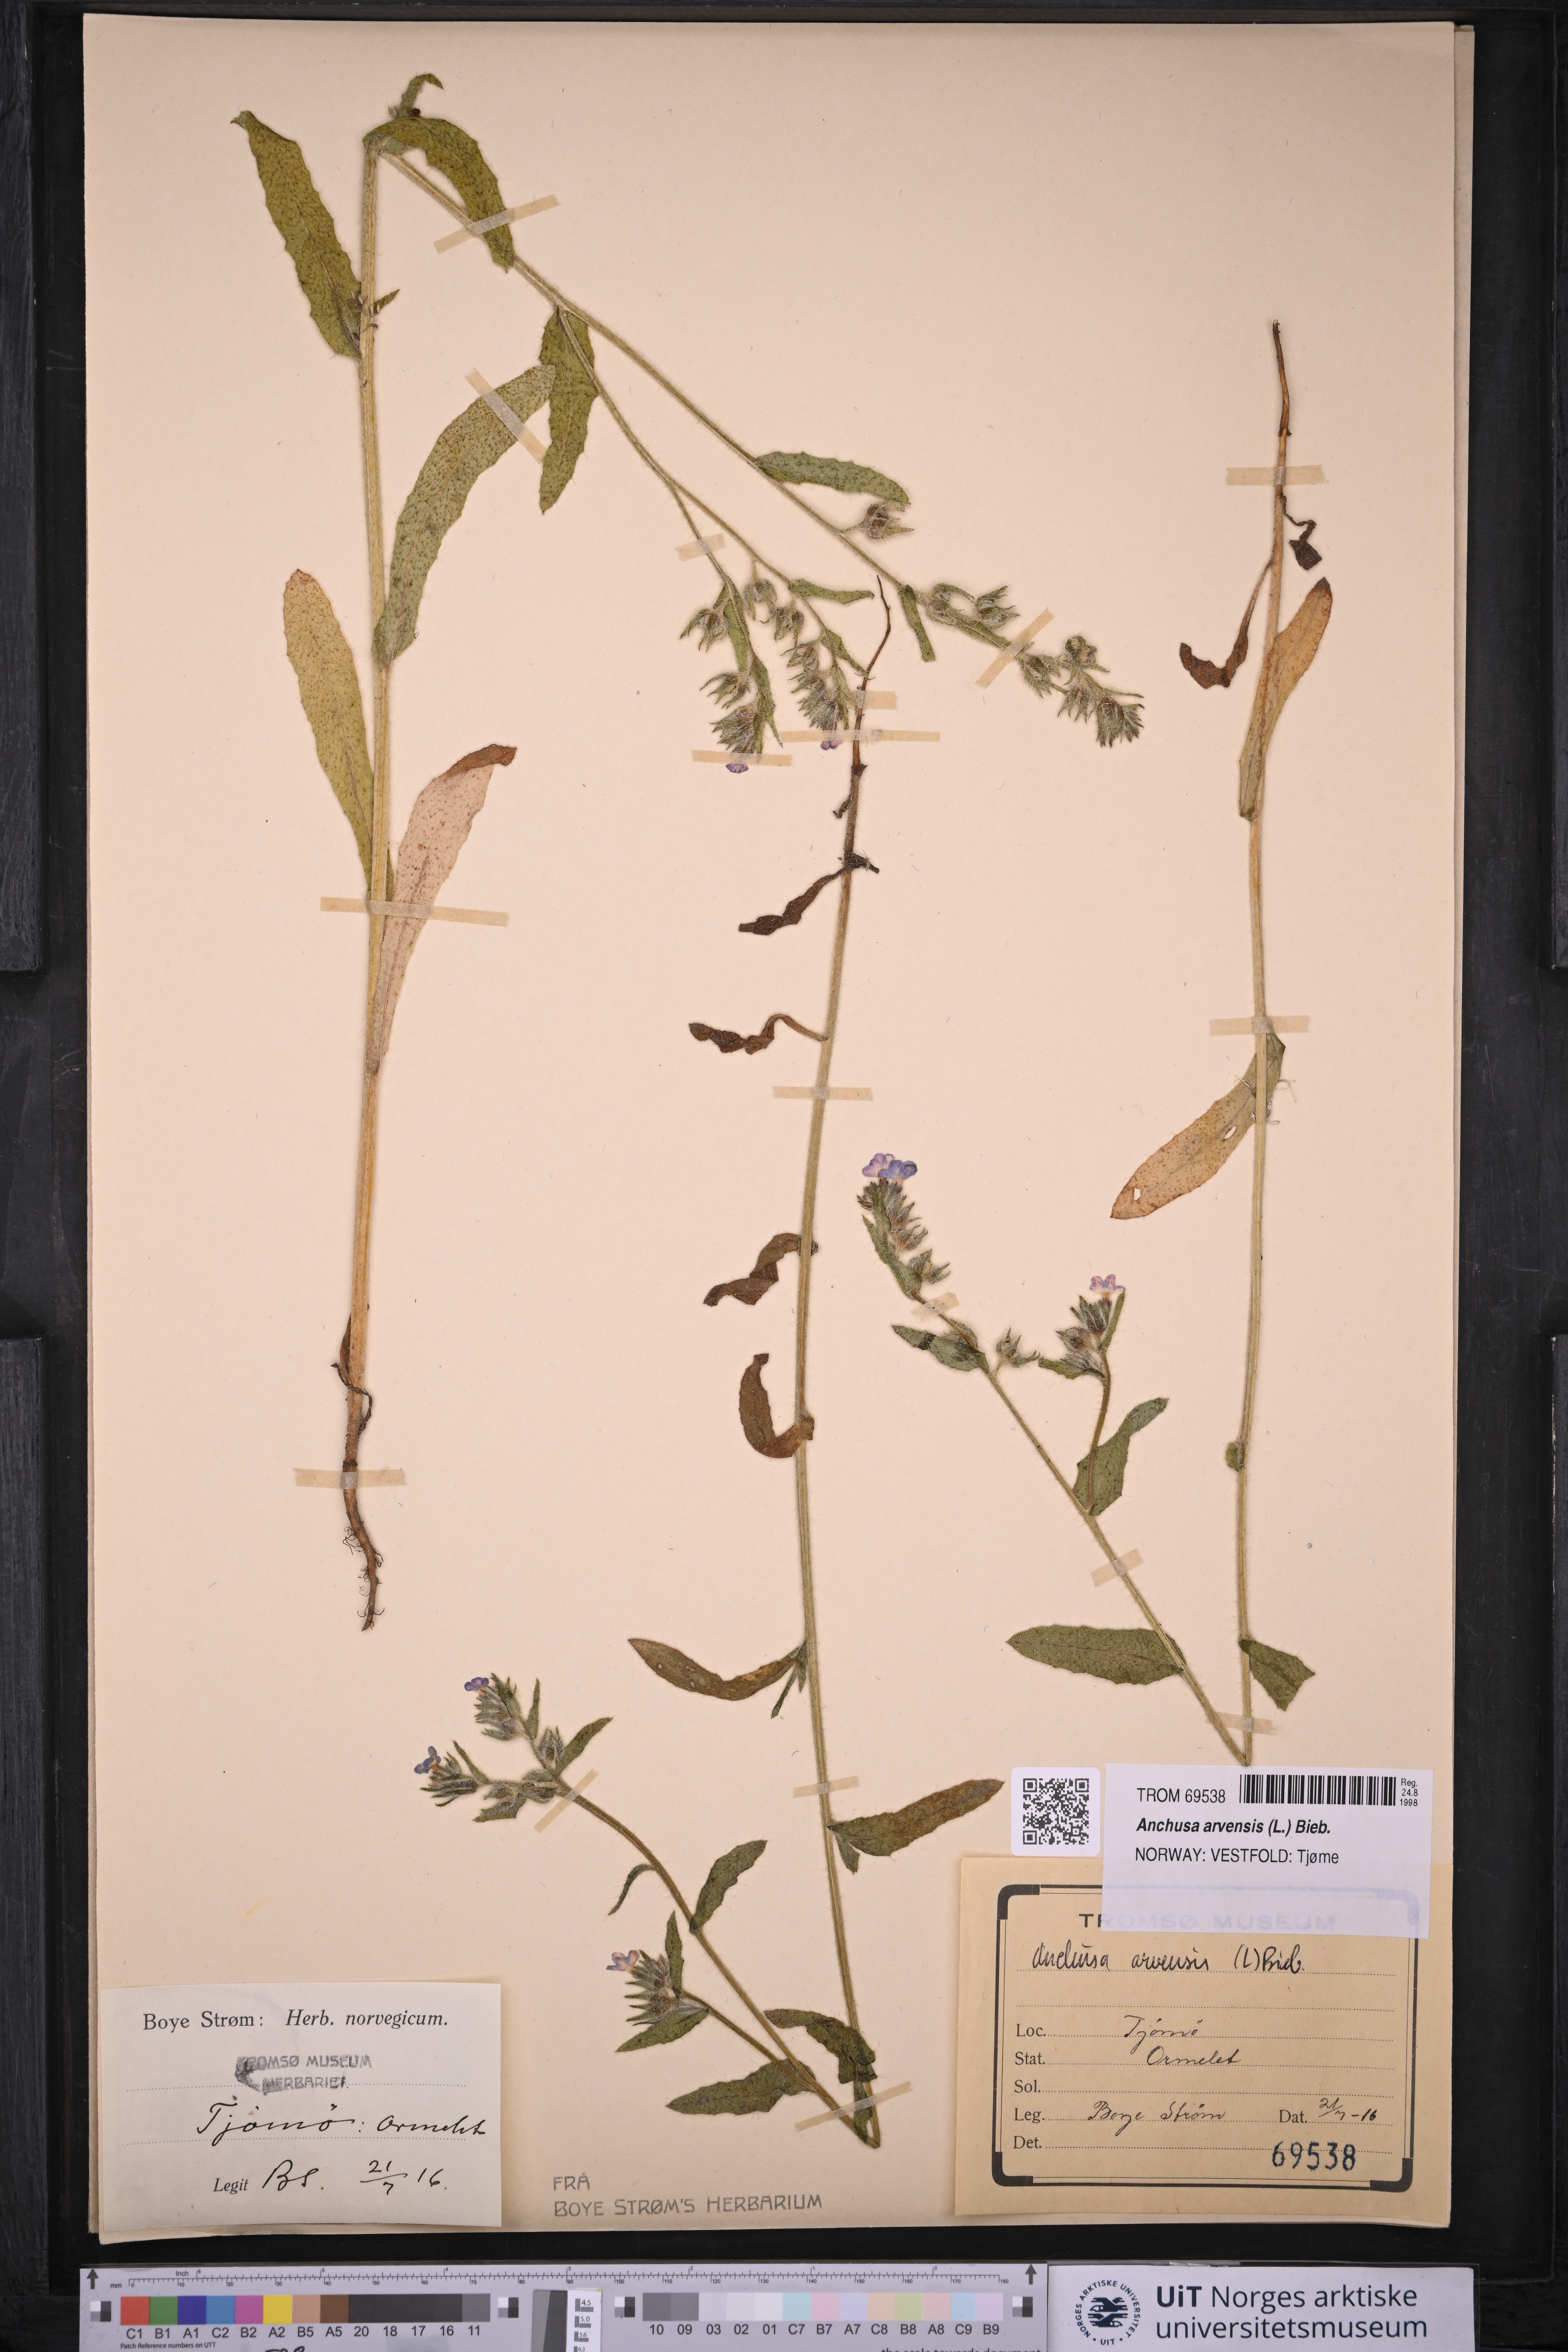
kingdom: Plantae
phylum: Tracheophyta
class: Magnoliopsida
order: Boraginales
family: Boraginaceae
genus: Lycopsis
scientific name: Lycopsis arvensis
